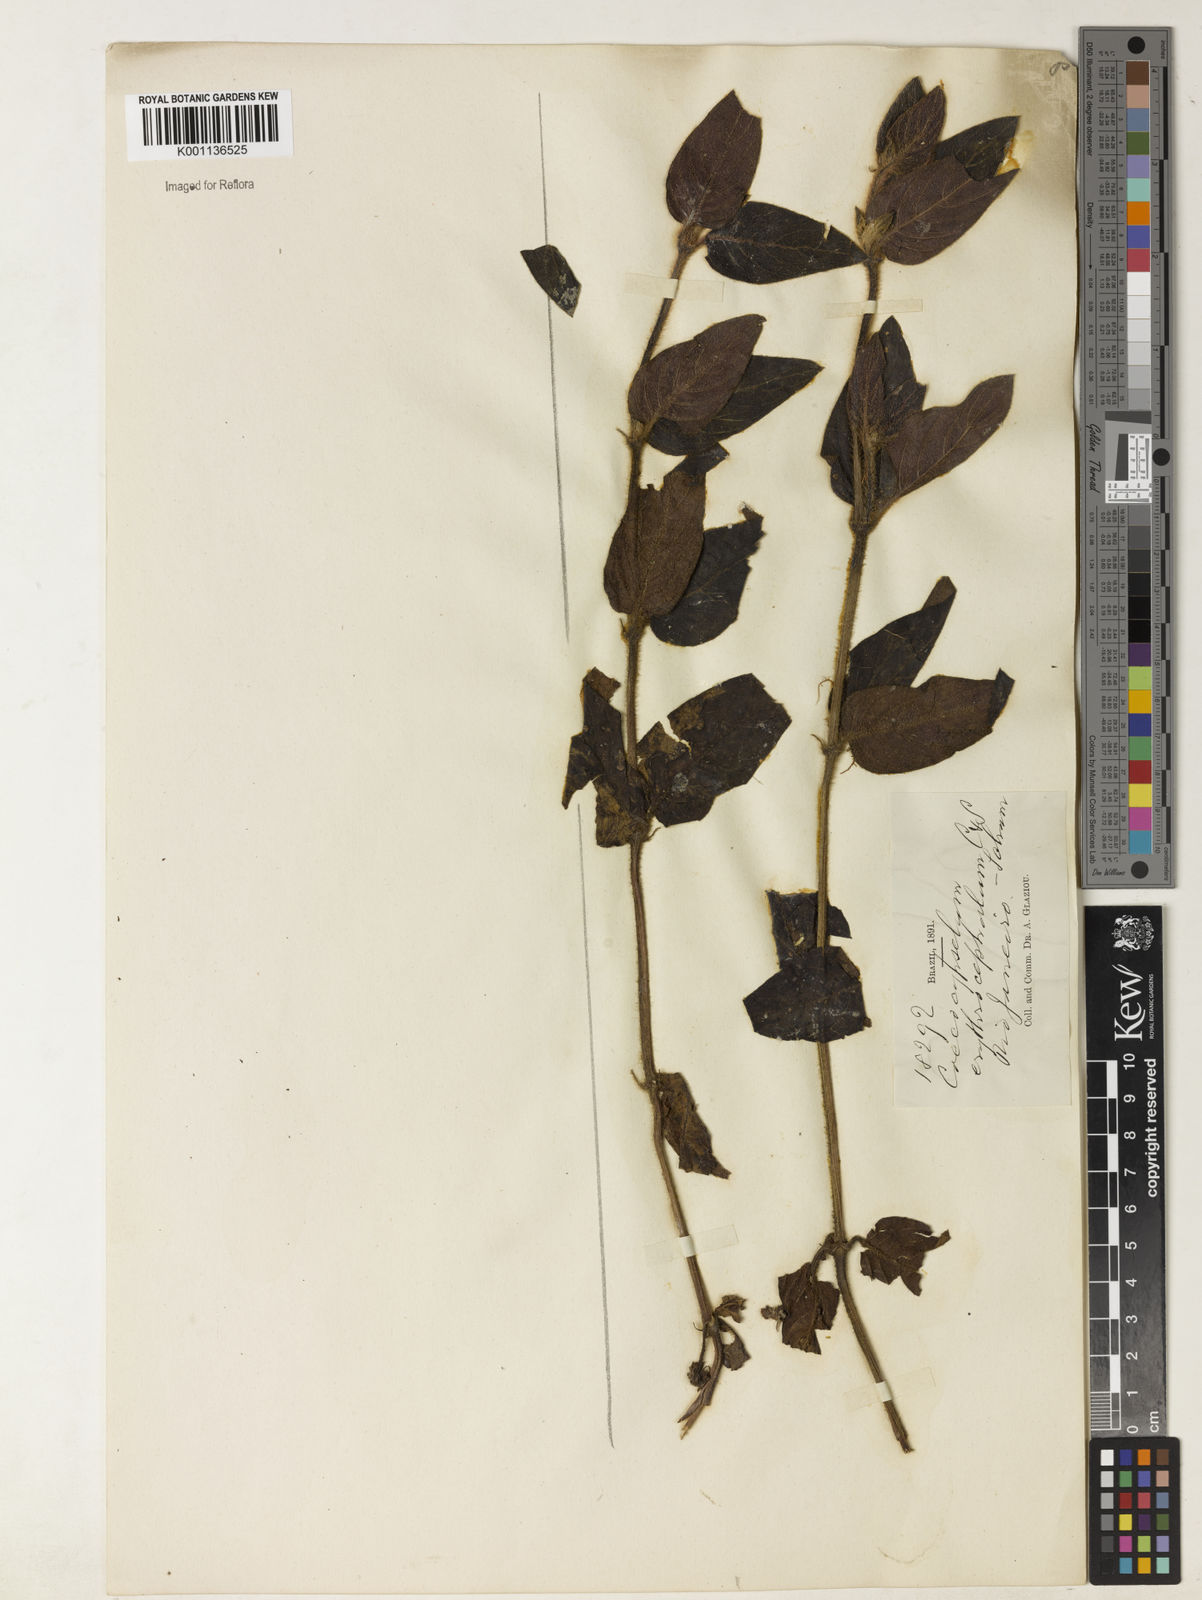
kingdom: Plantae
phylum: Tracheophyta
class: Magnoliopsida
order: Gentianales
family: Rubiaceae
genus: Coccocypselum
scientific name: Coccocypselum erythrocephalum
